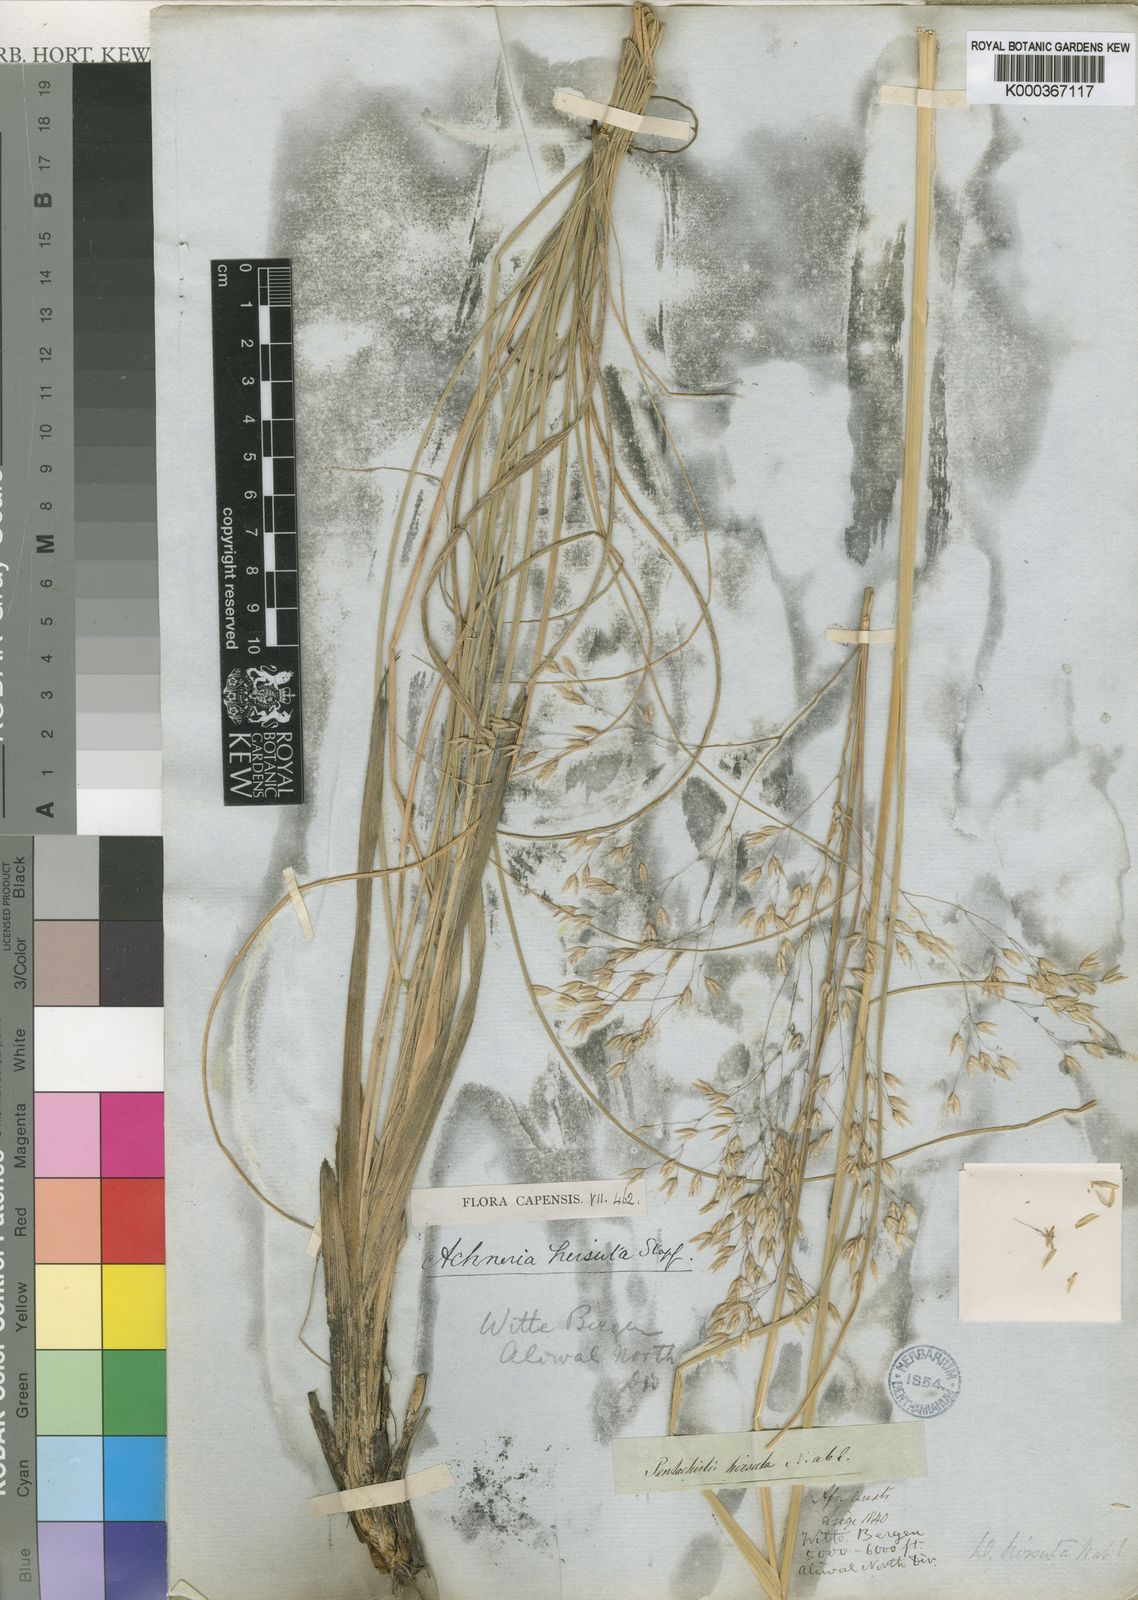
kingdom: Plantae
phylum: Tracheophyta
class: Liliopsida
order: Poales
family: Poaceae
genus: Pentameris
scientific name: Pentameris aurea
